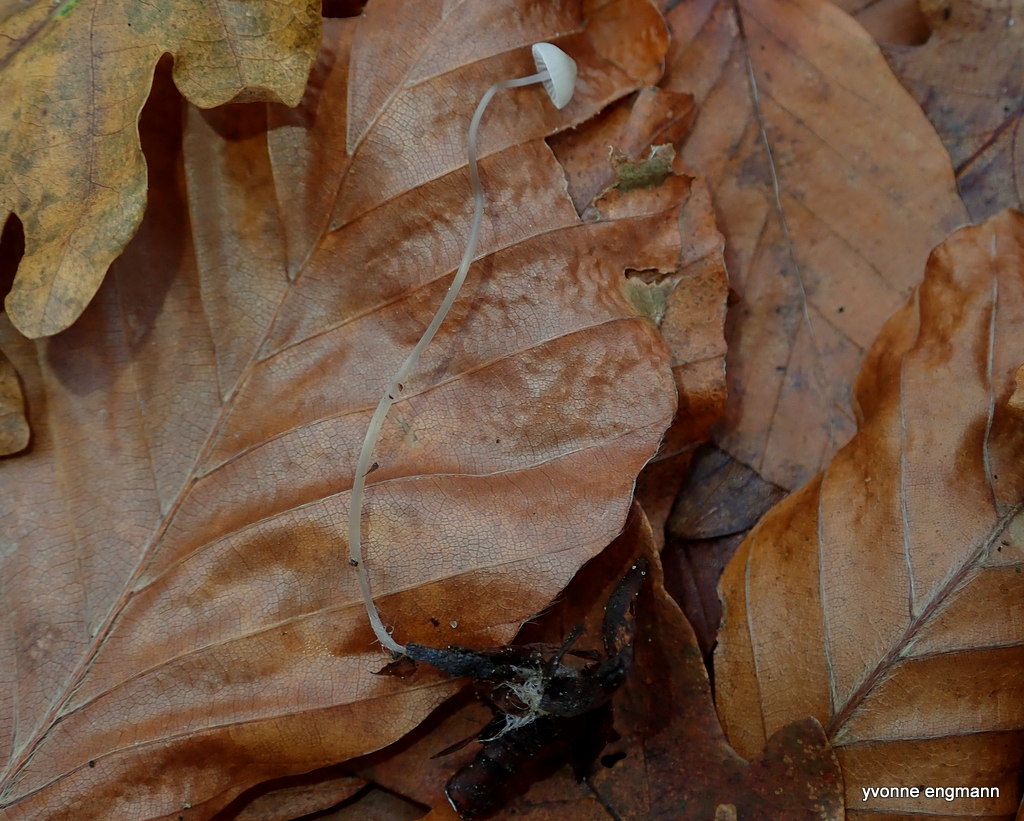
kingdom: Fungi
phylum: Basidiomycota
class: Agaricomycetes
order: Agaricales
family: Mycenaceae
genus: Mycena
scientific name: Mycena vitilis
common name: blankstokket huesvamp
